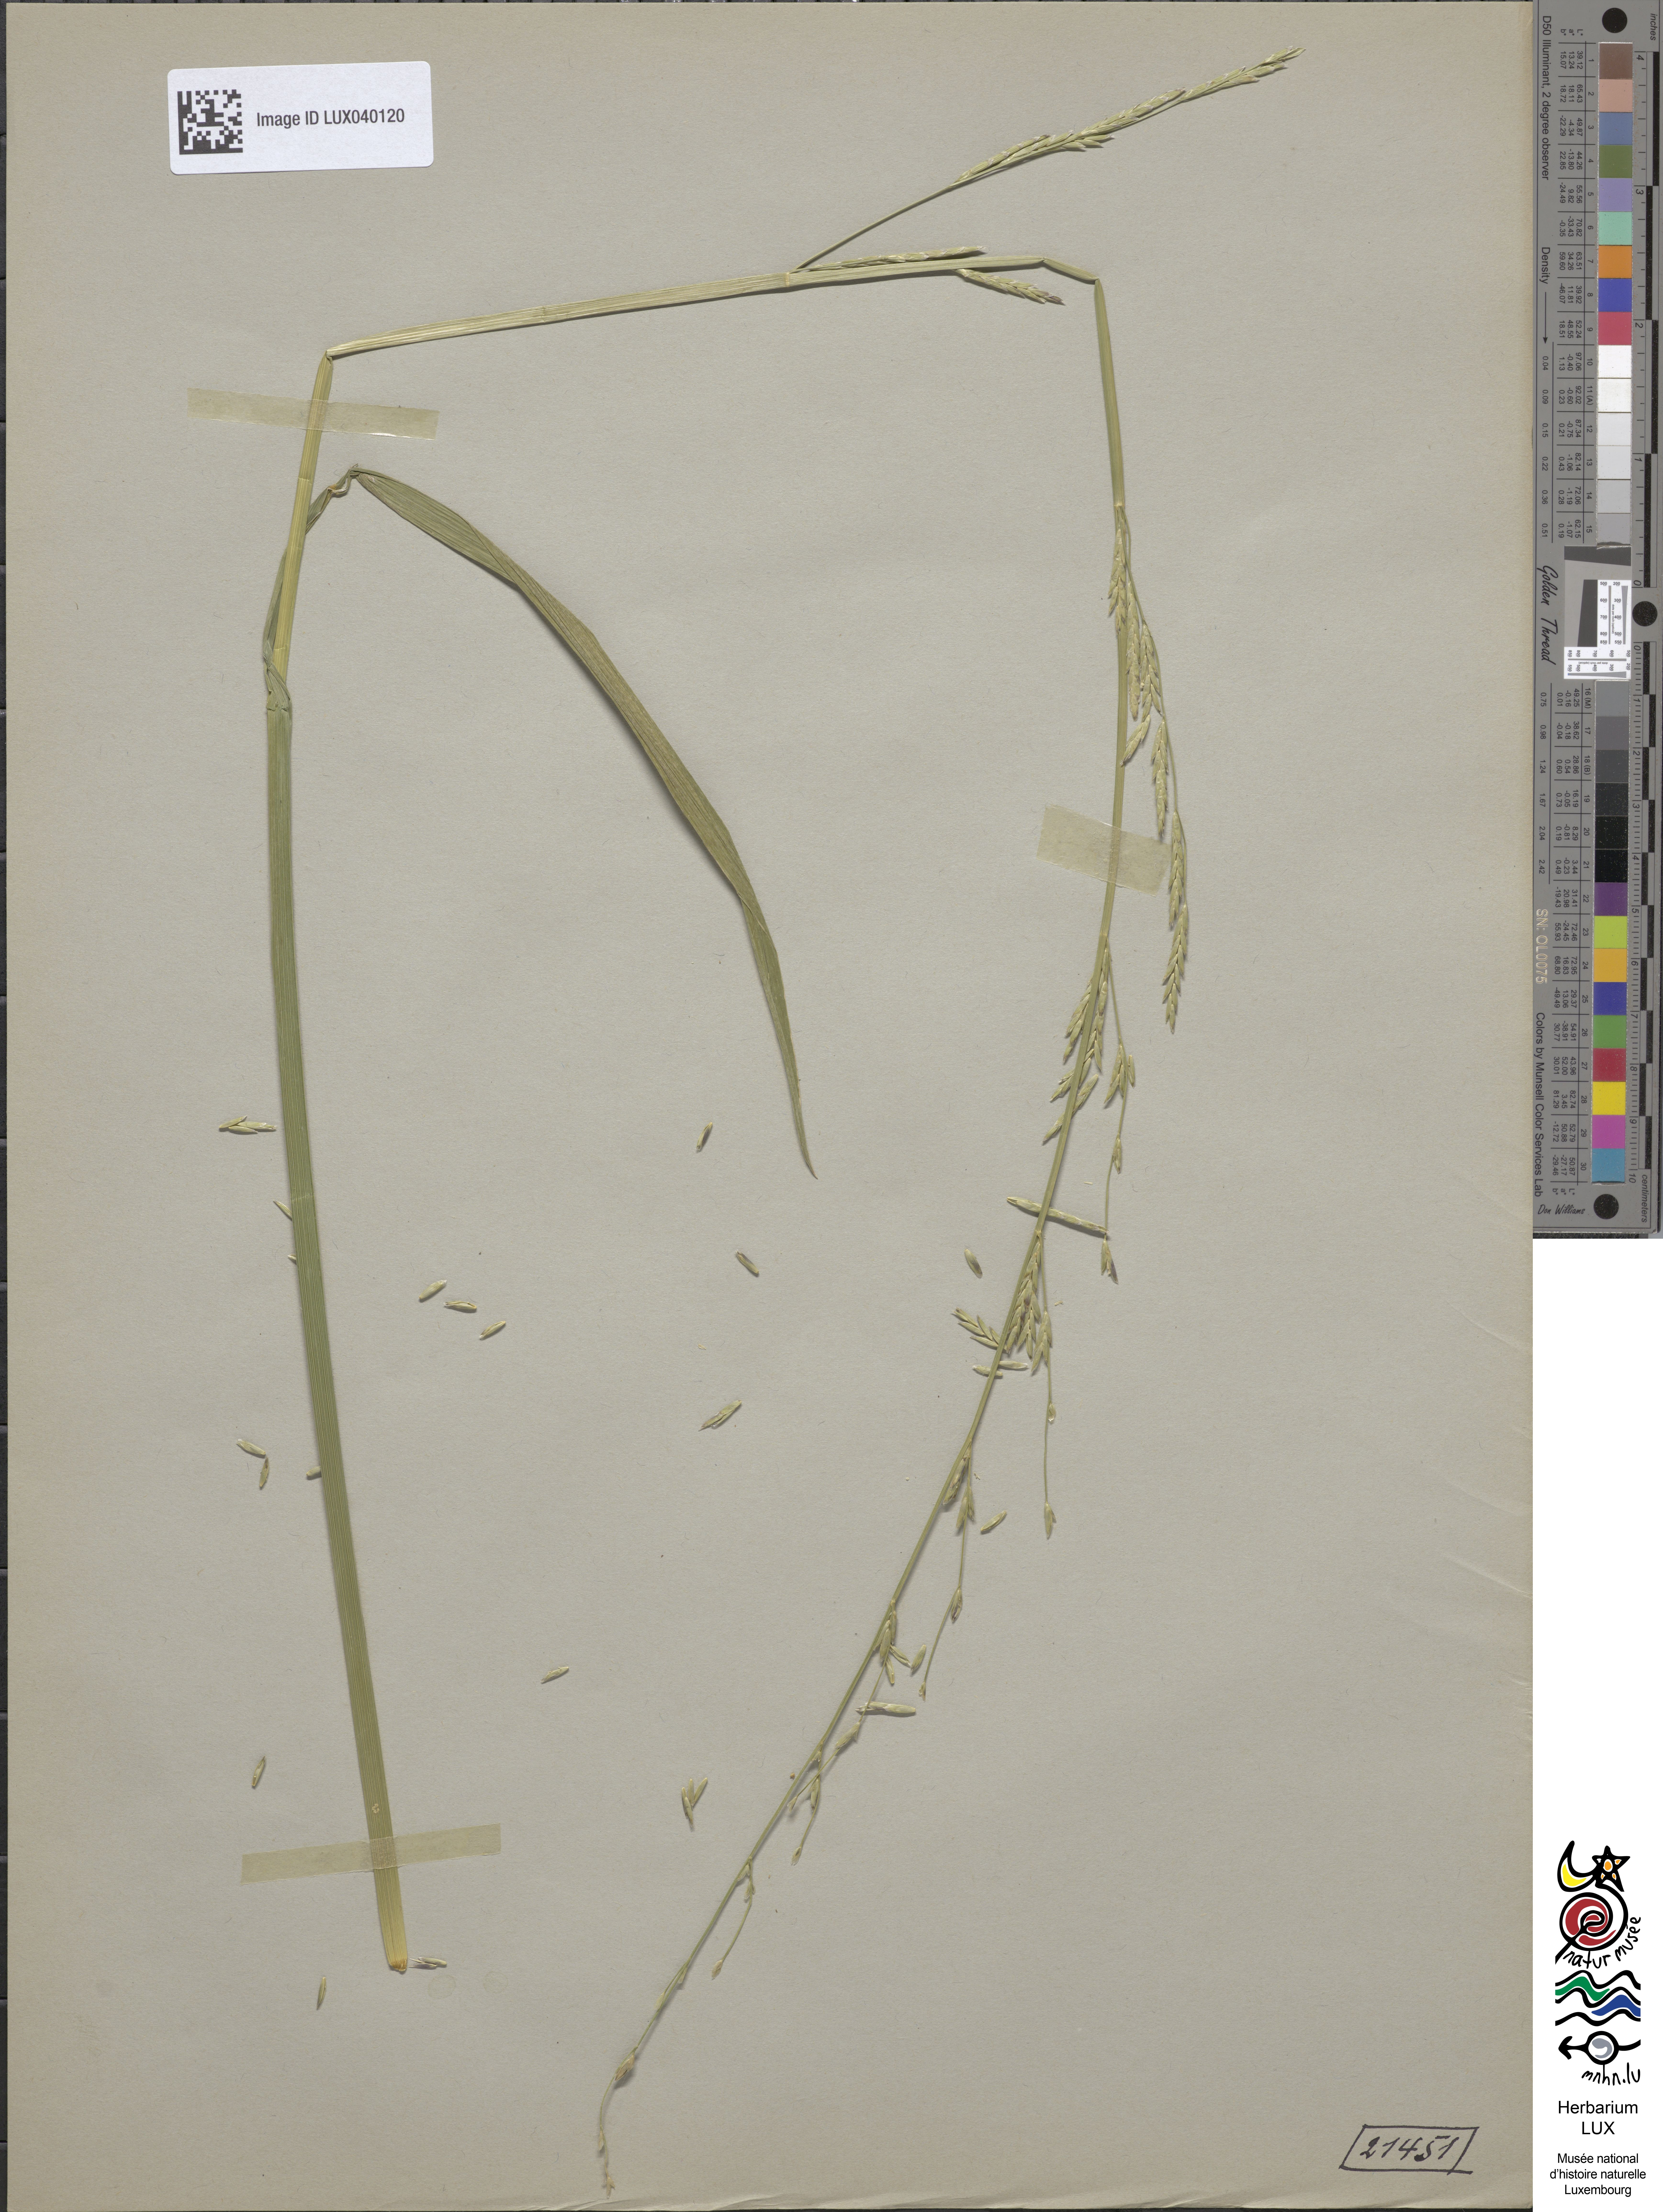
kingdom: Plantae
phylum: Tracheophyta
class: Liliopsida
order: Poales
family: Poaceae
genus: Glyceria
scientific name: Glyceria fluitans
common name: Floating sweet-grass
